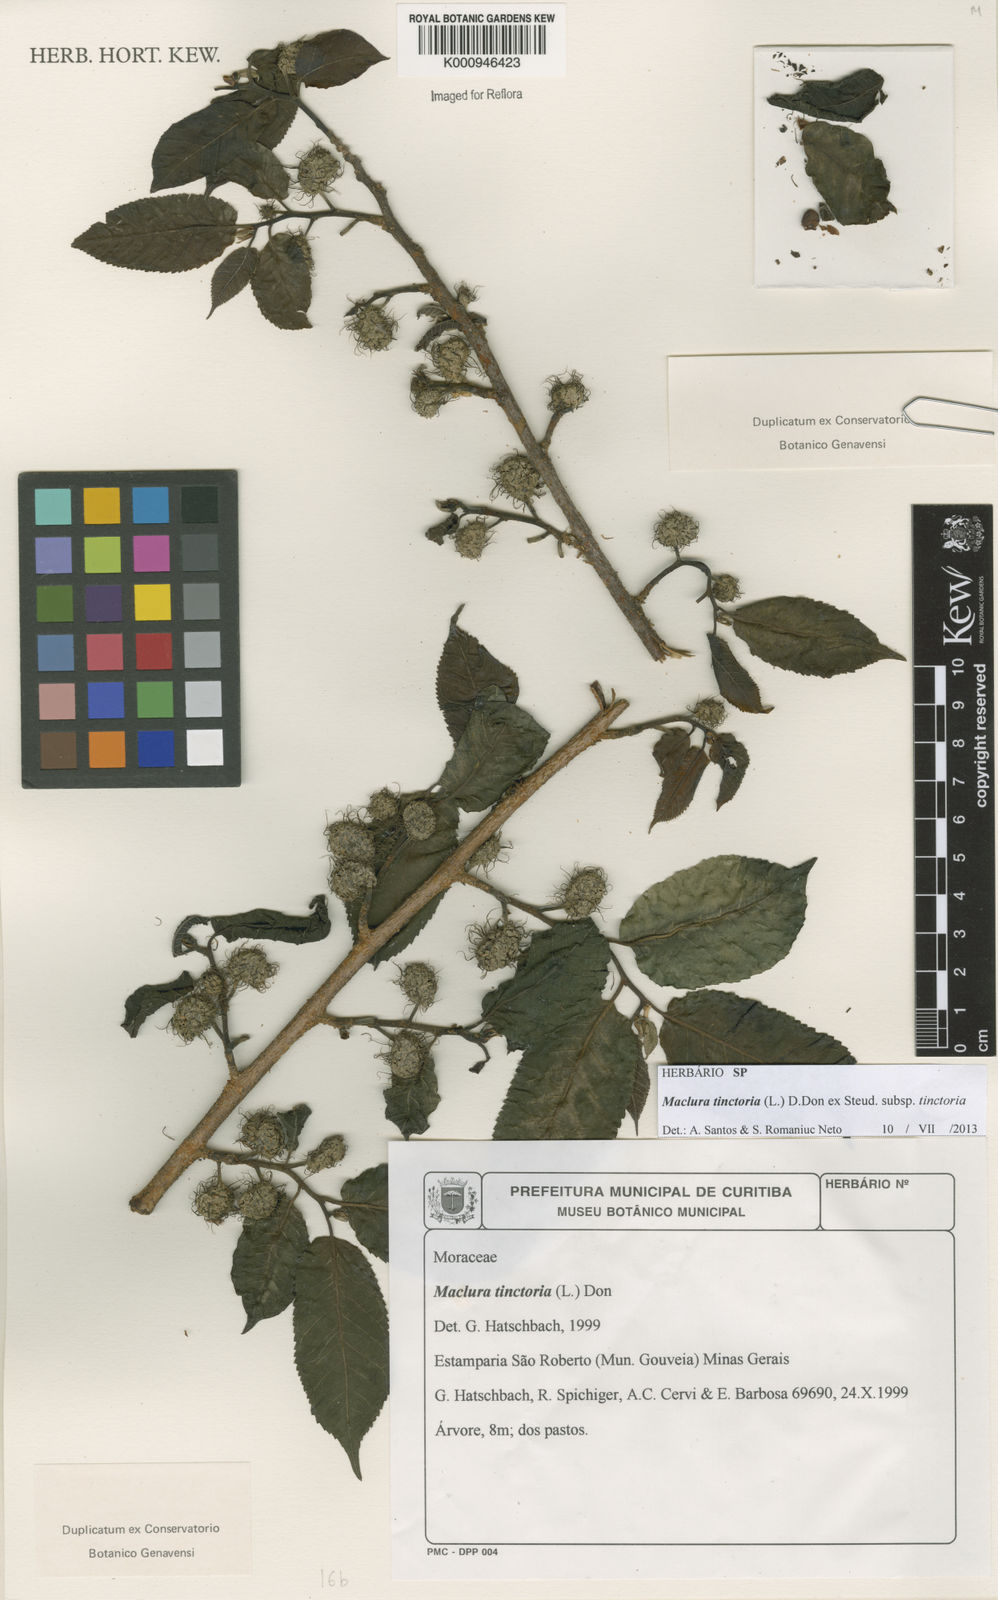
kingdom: Plantae
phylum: Tracheophyta
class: Magnoliopsida
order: Rosales
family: Moraceae
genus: Maclura
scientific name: Maclura tinctoria
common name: Old fustic
